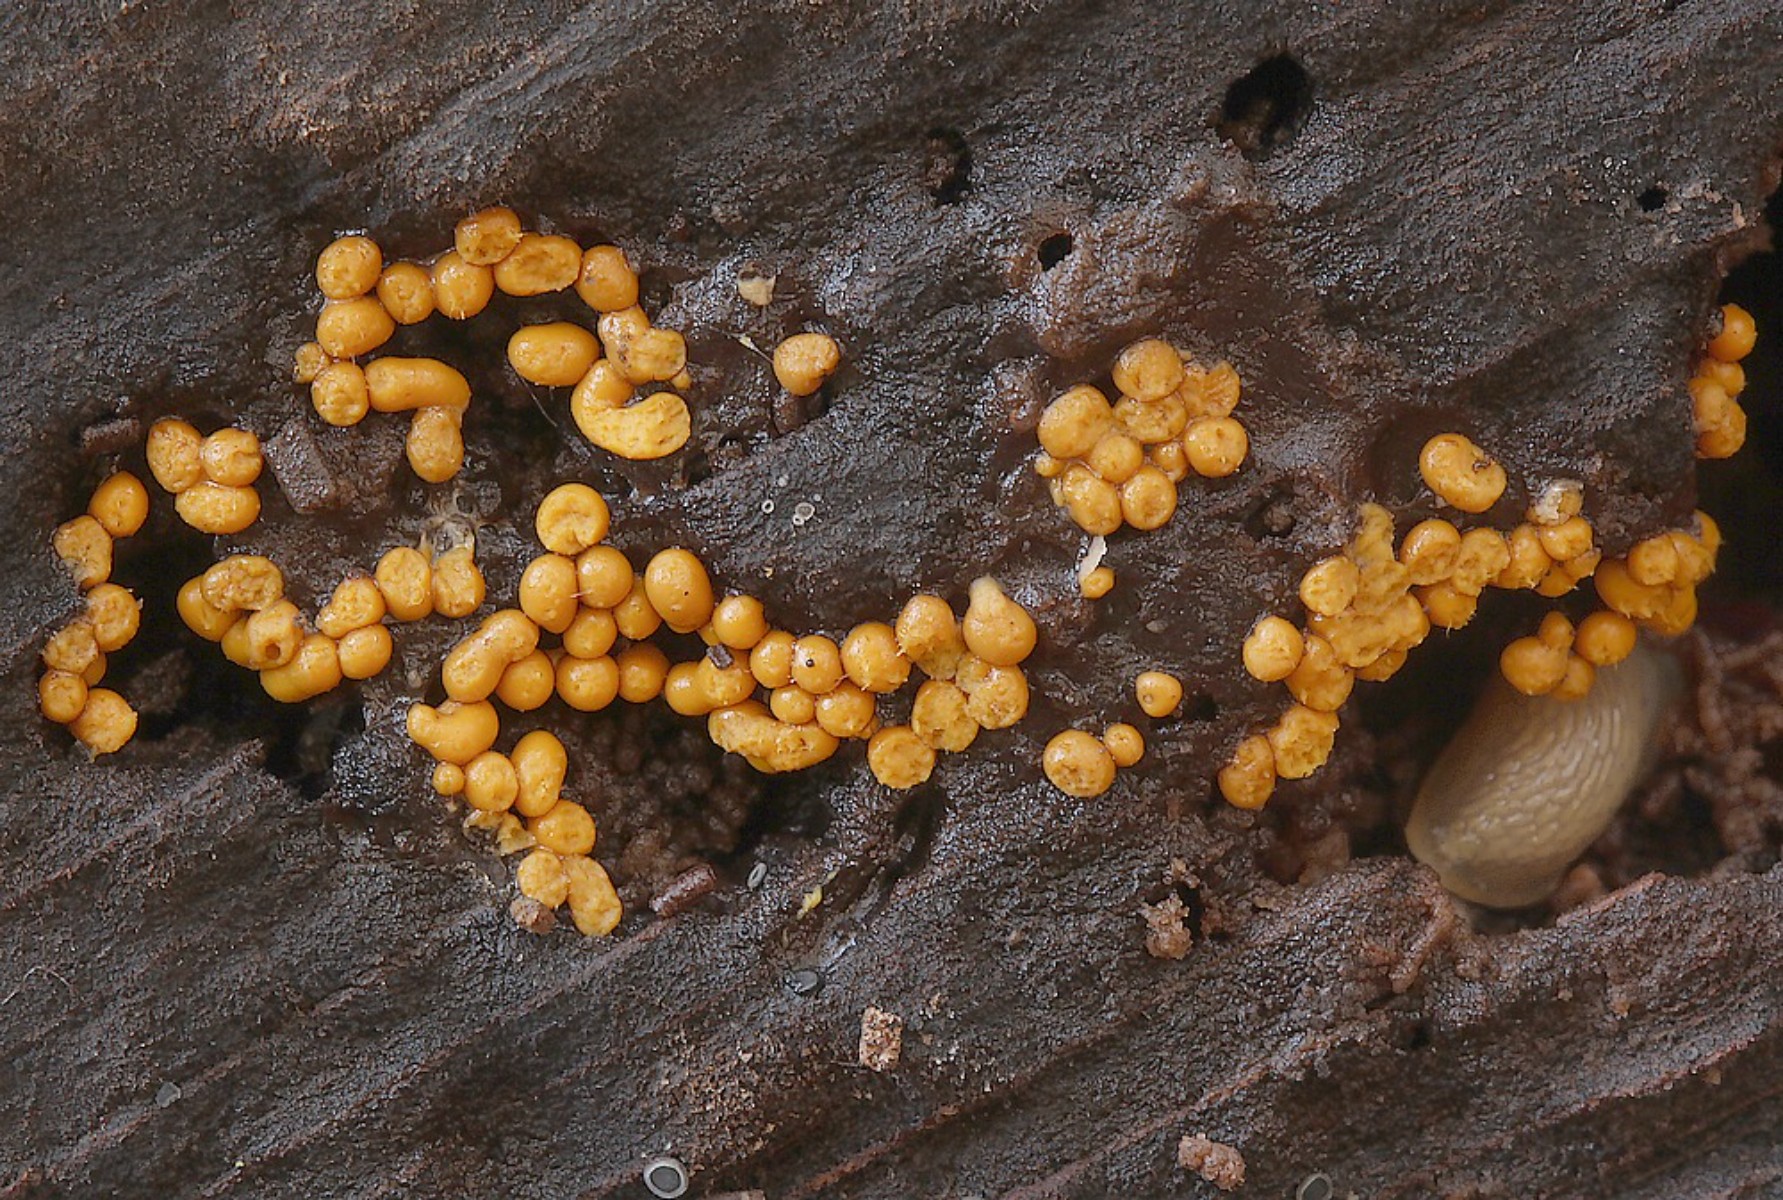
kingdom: Protozoa
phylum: Mycetozoa
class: Myxomycetes
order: Trichiales
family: Trichiaceae
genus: Trichia
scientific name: Trichia varia
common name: foranderlig hårbold
